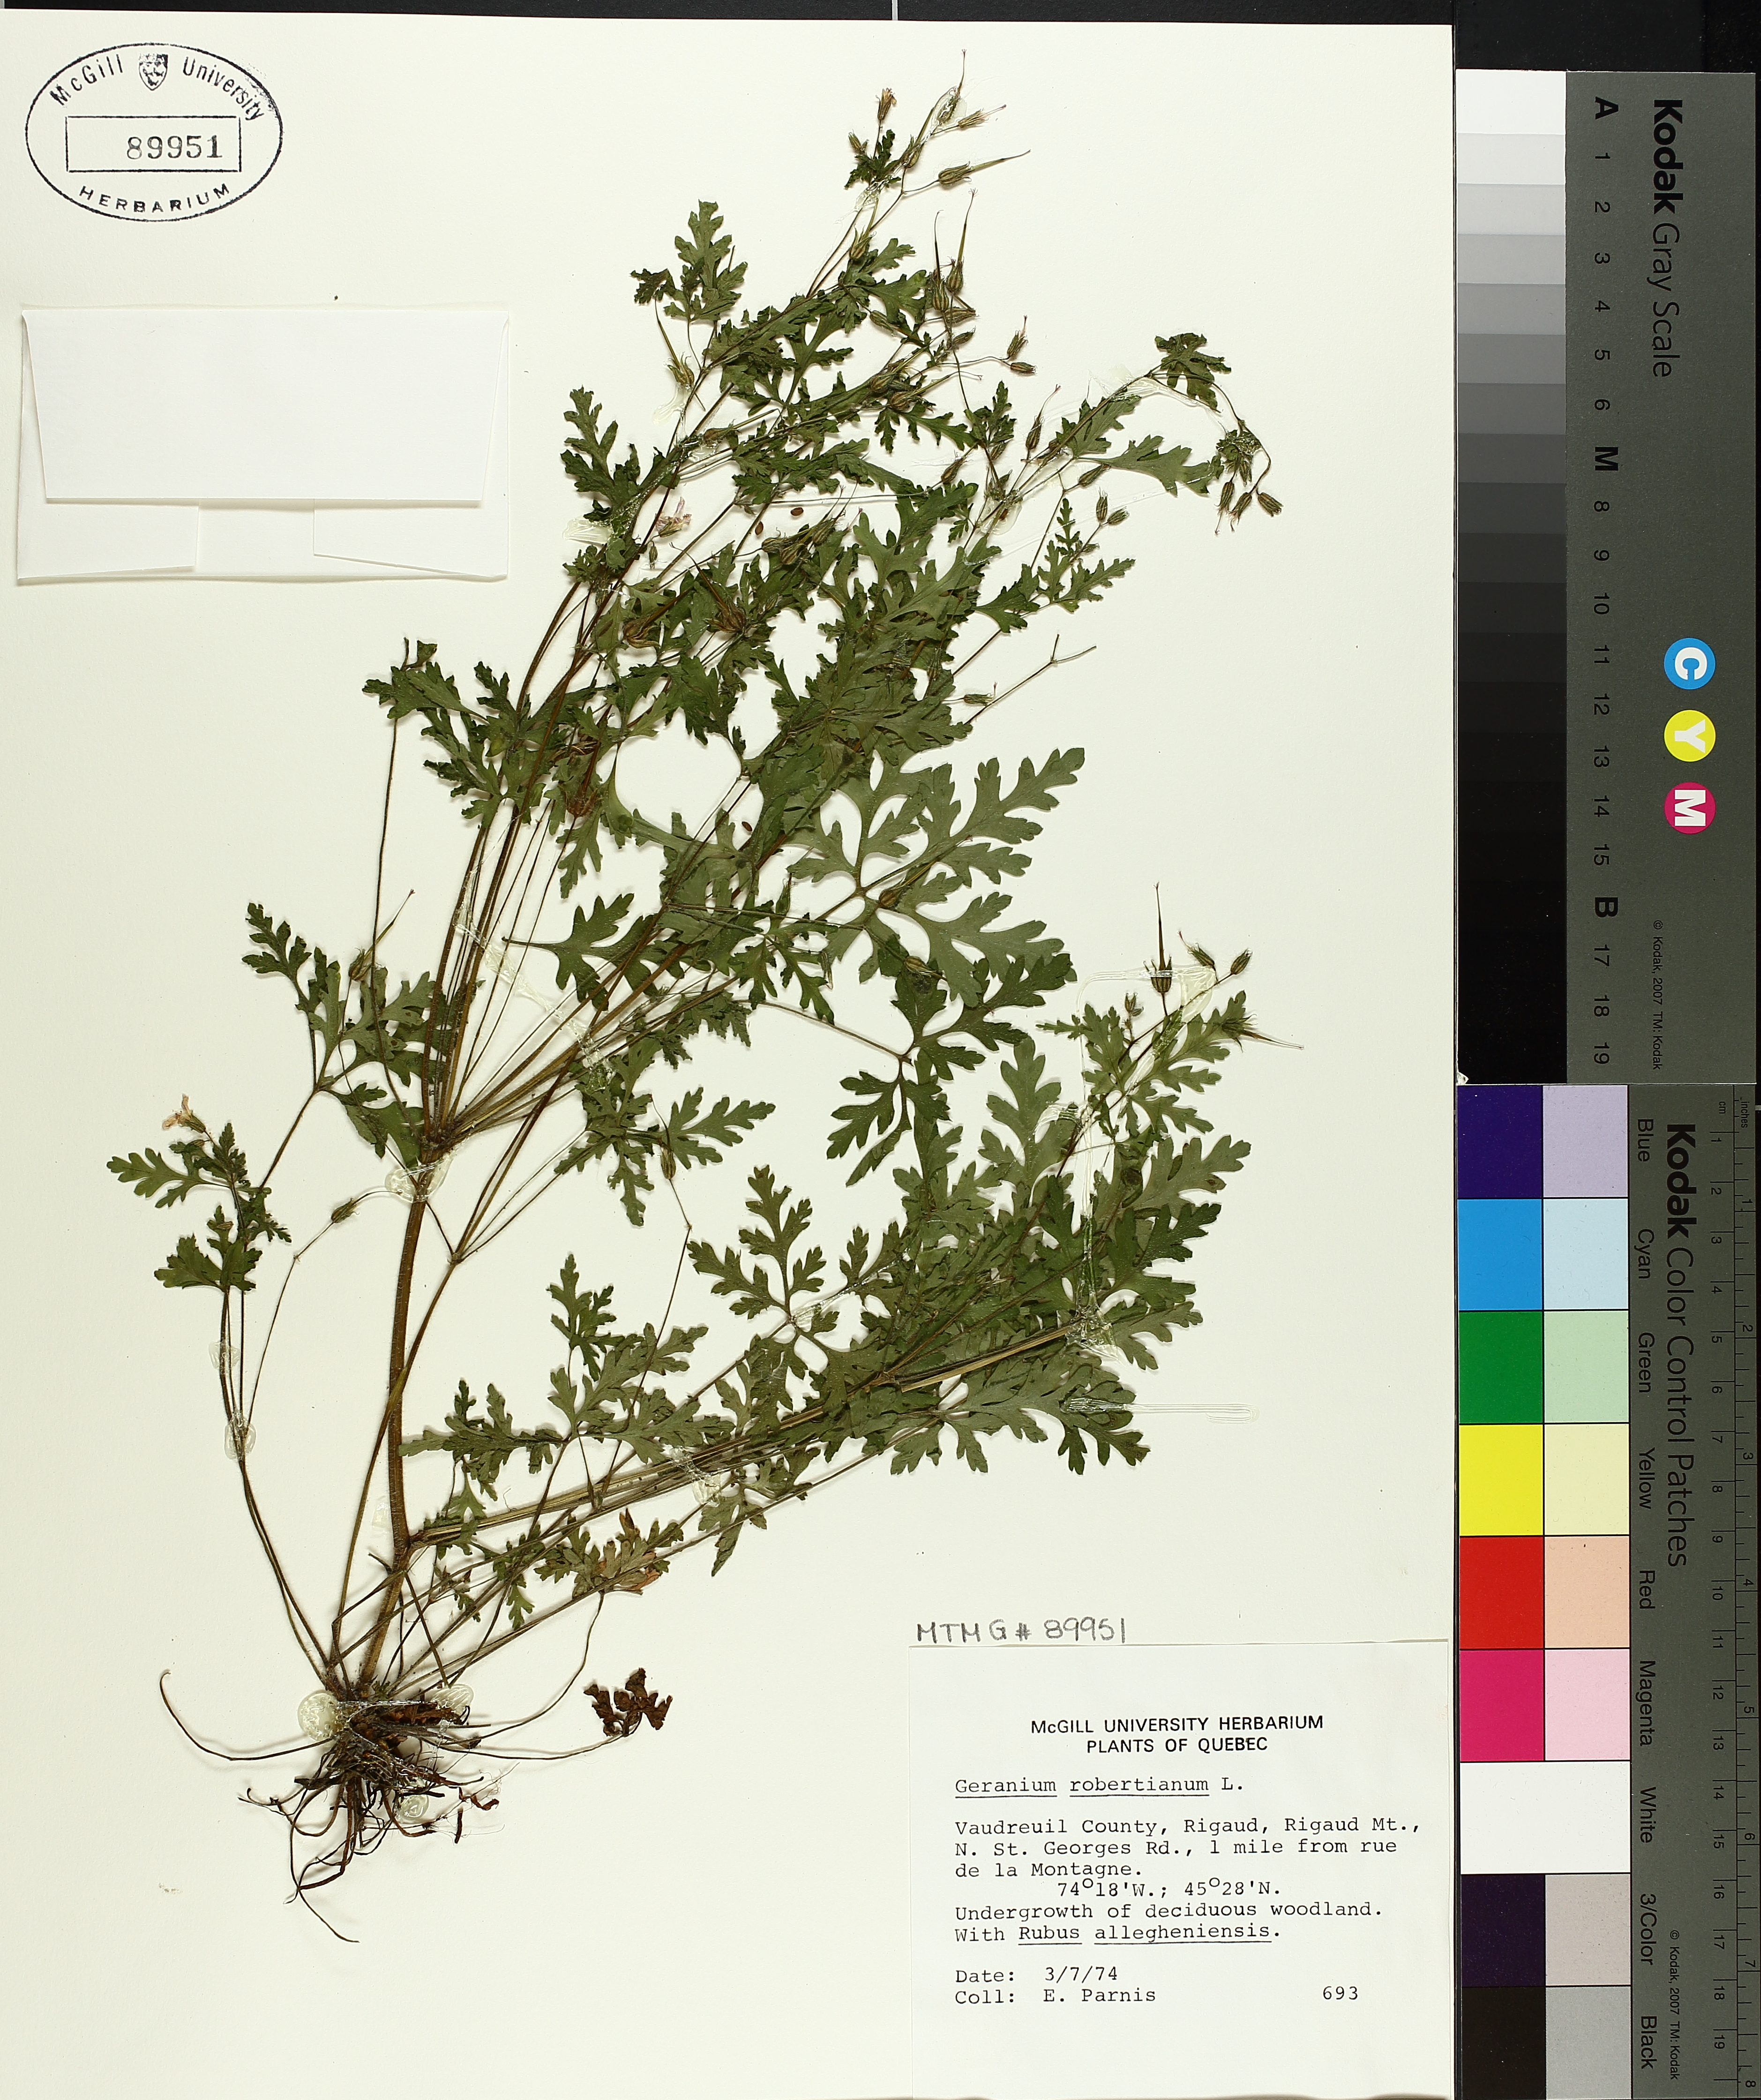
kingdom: Plantae
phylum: Tracheophyta
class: Magnoliopsida
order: Geraniales
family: Geraniaceae
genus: Geranium
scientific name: Geranium robertianum
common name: Herb-robert
